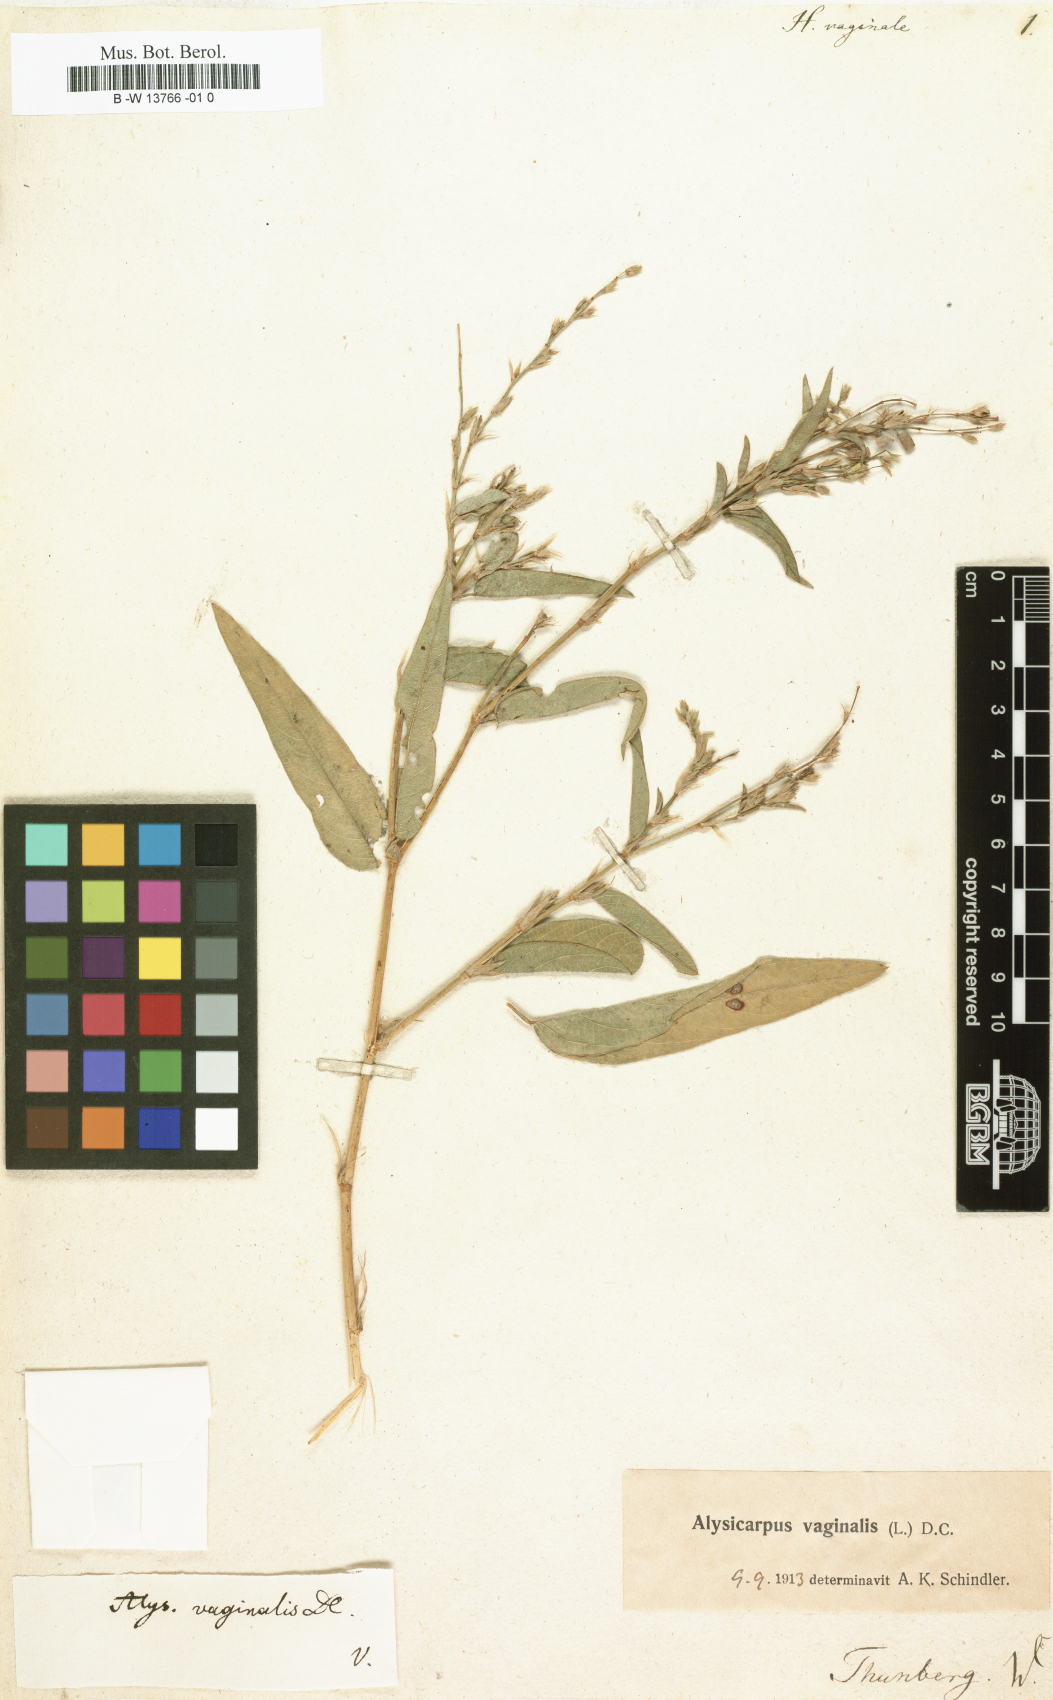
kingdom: Plantae
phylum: Tracheophyta
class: Magnoliopsida
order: Fabales
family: Fabaceae
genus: Alysicarpus
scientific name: Alysicarpus vaginalis
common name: White moneywort
